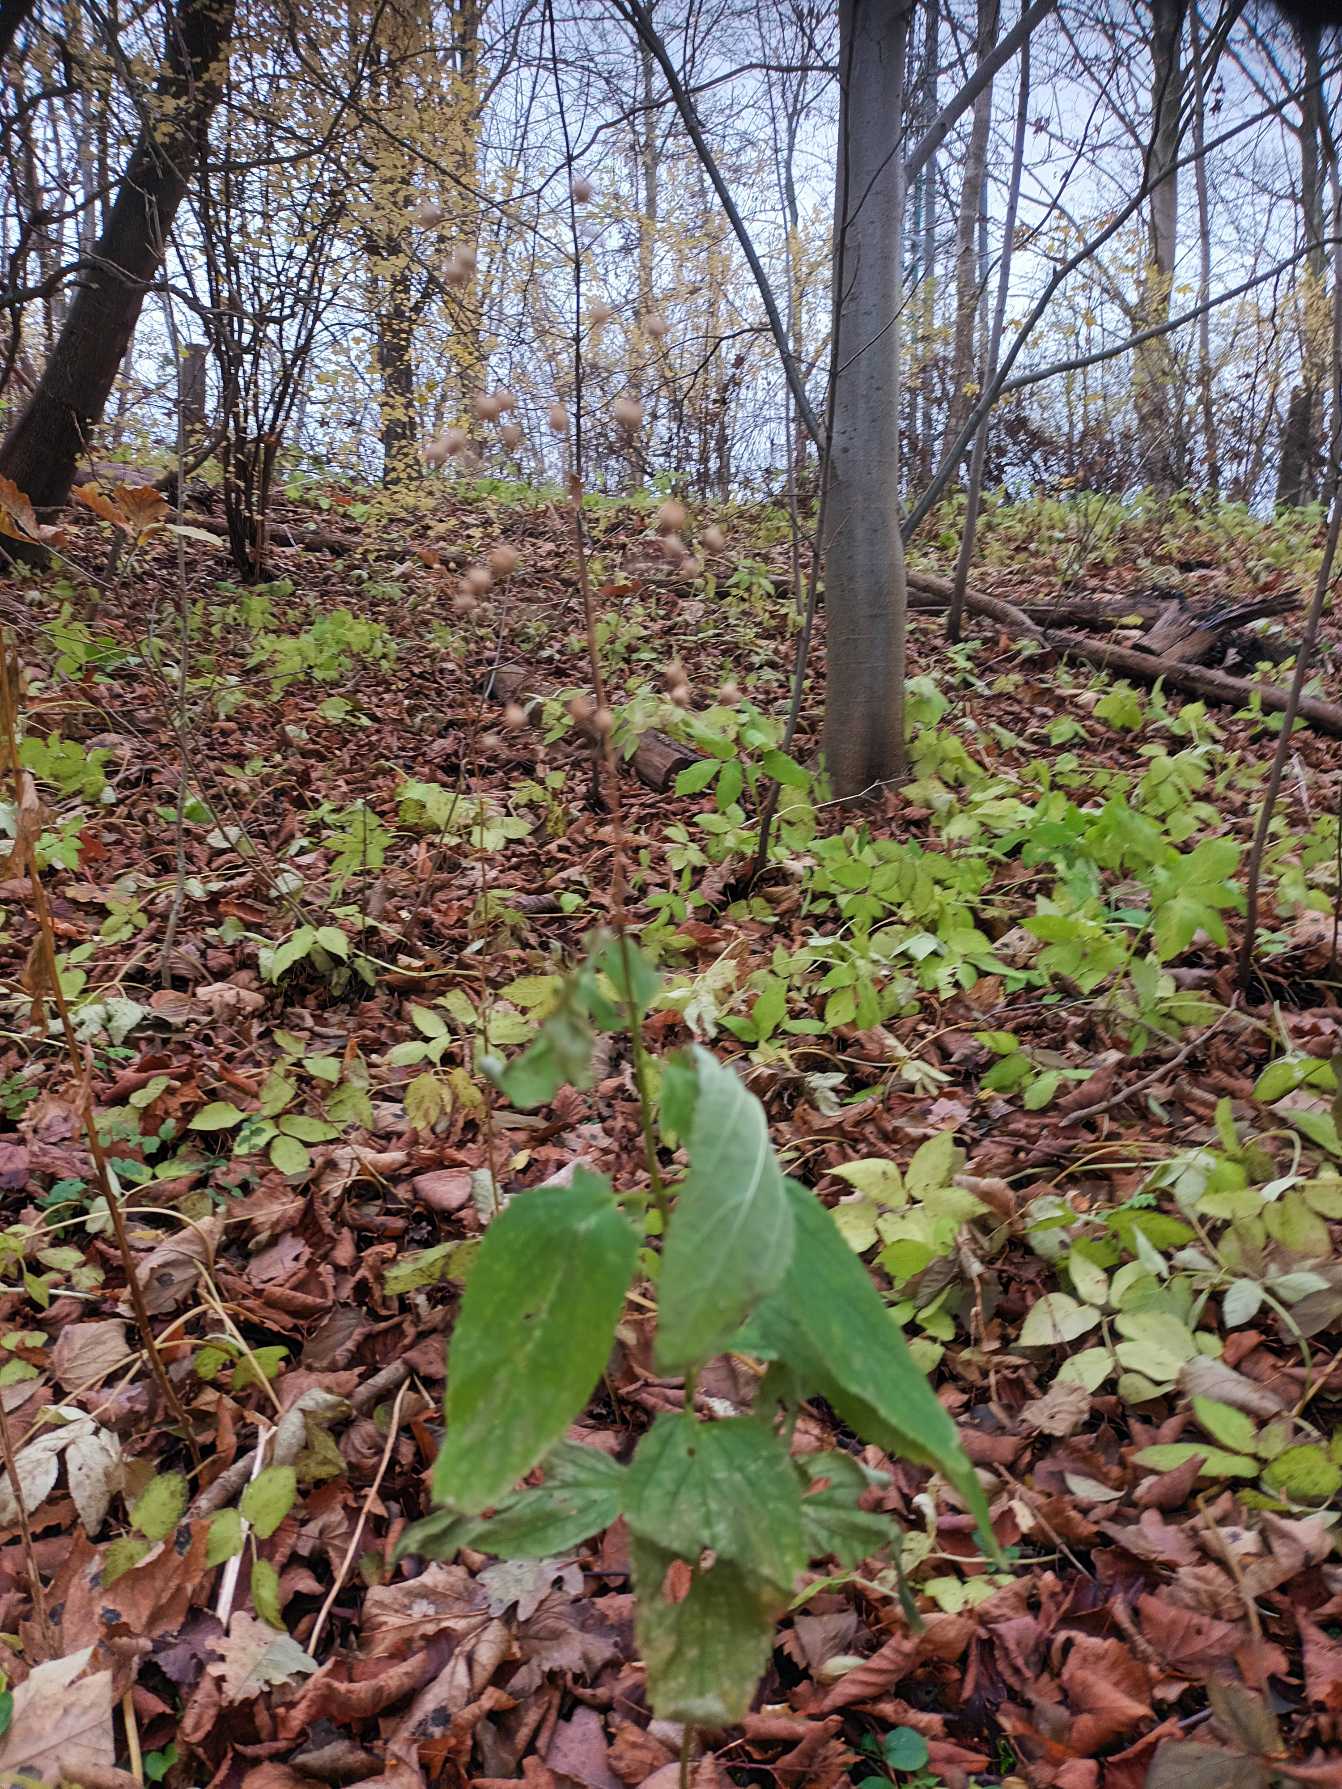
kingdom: Plantae
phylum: Tracheophyta
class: Magnoliopsida
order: Lamiales
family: Scrophulariaceae
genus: Scrophularia
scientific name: Scrophularia nodosa
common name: Knoldet brunrod
